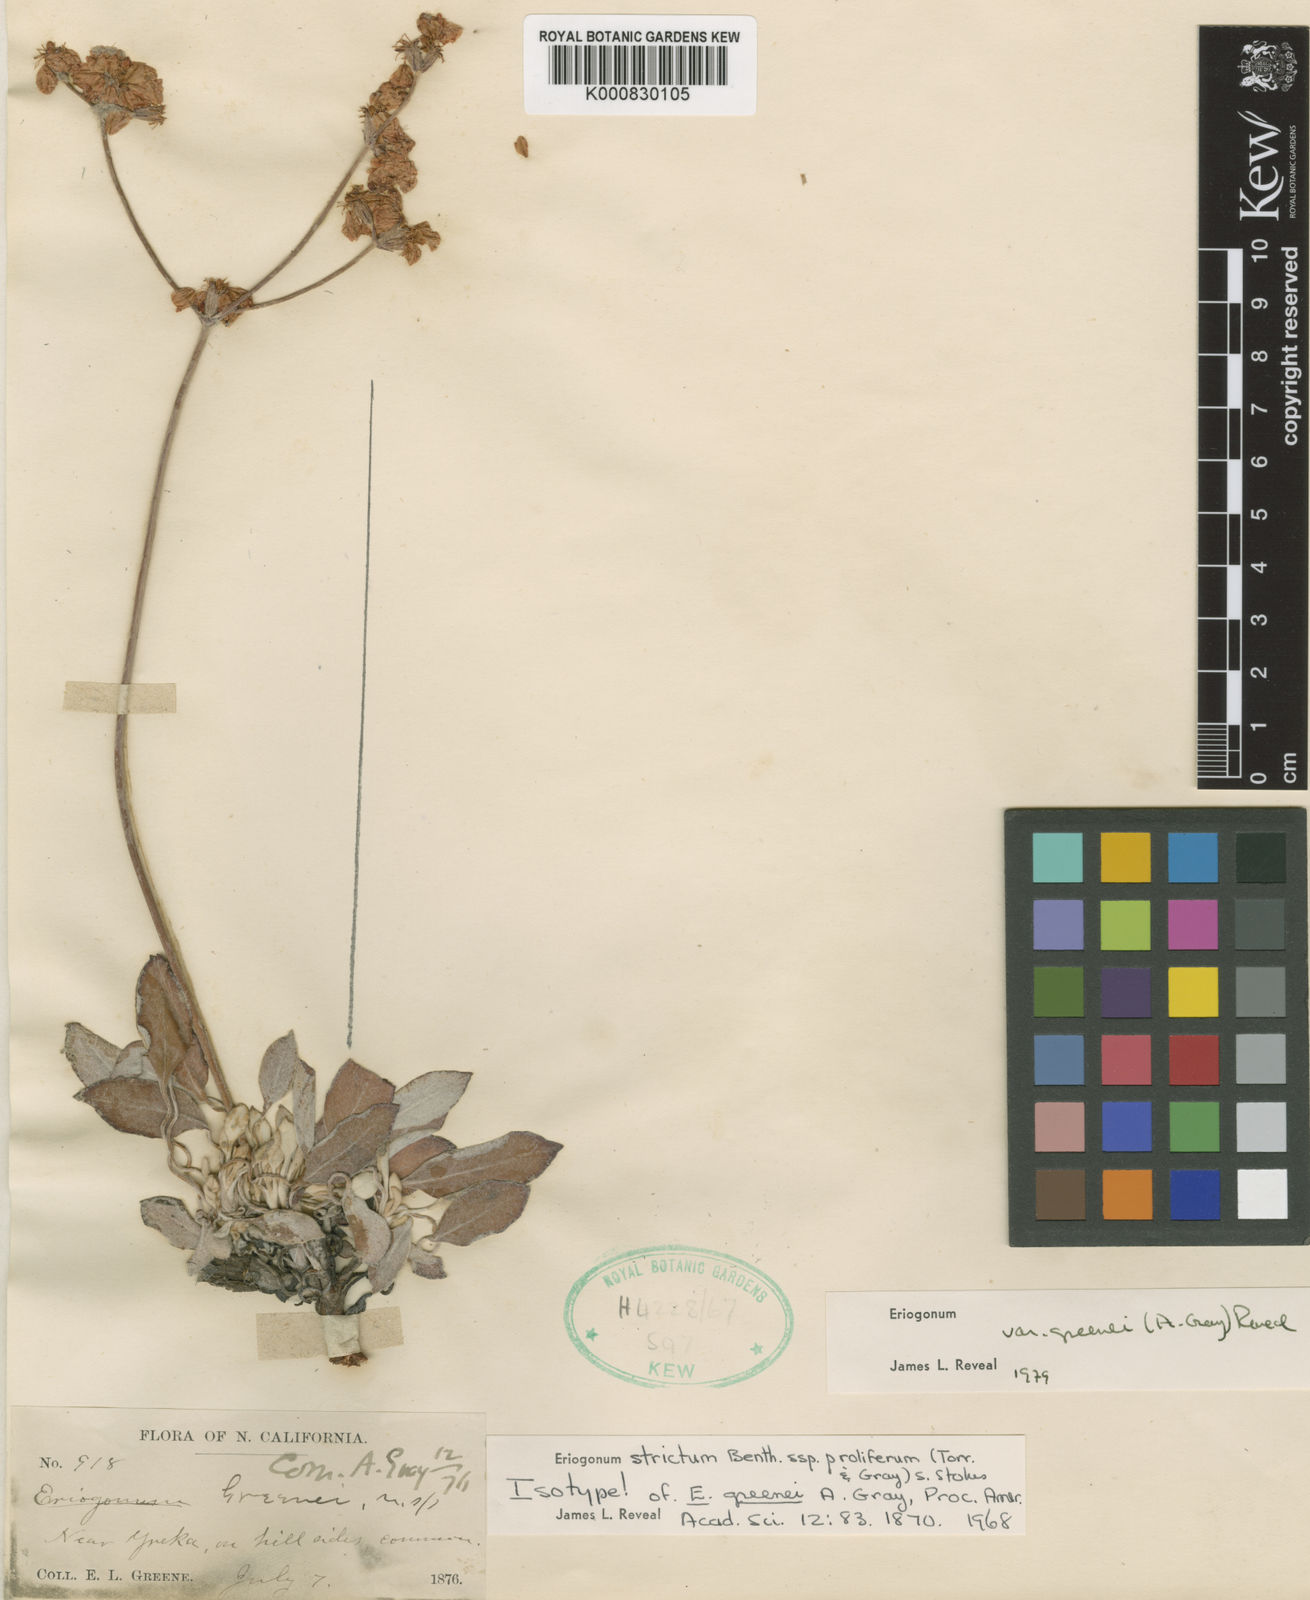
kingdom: Plantae
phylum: Tracheophyta
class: Magnoliopsida
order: Caryophyllales
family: Polygonaceae
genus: Eriogonum
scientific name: Eriogonum strictum
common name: Blue mountain buckwheat
